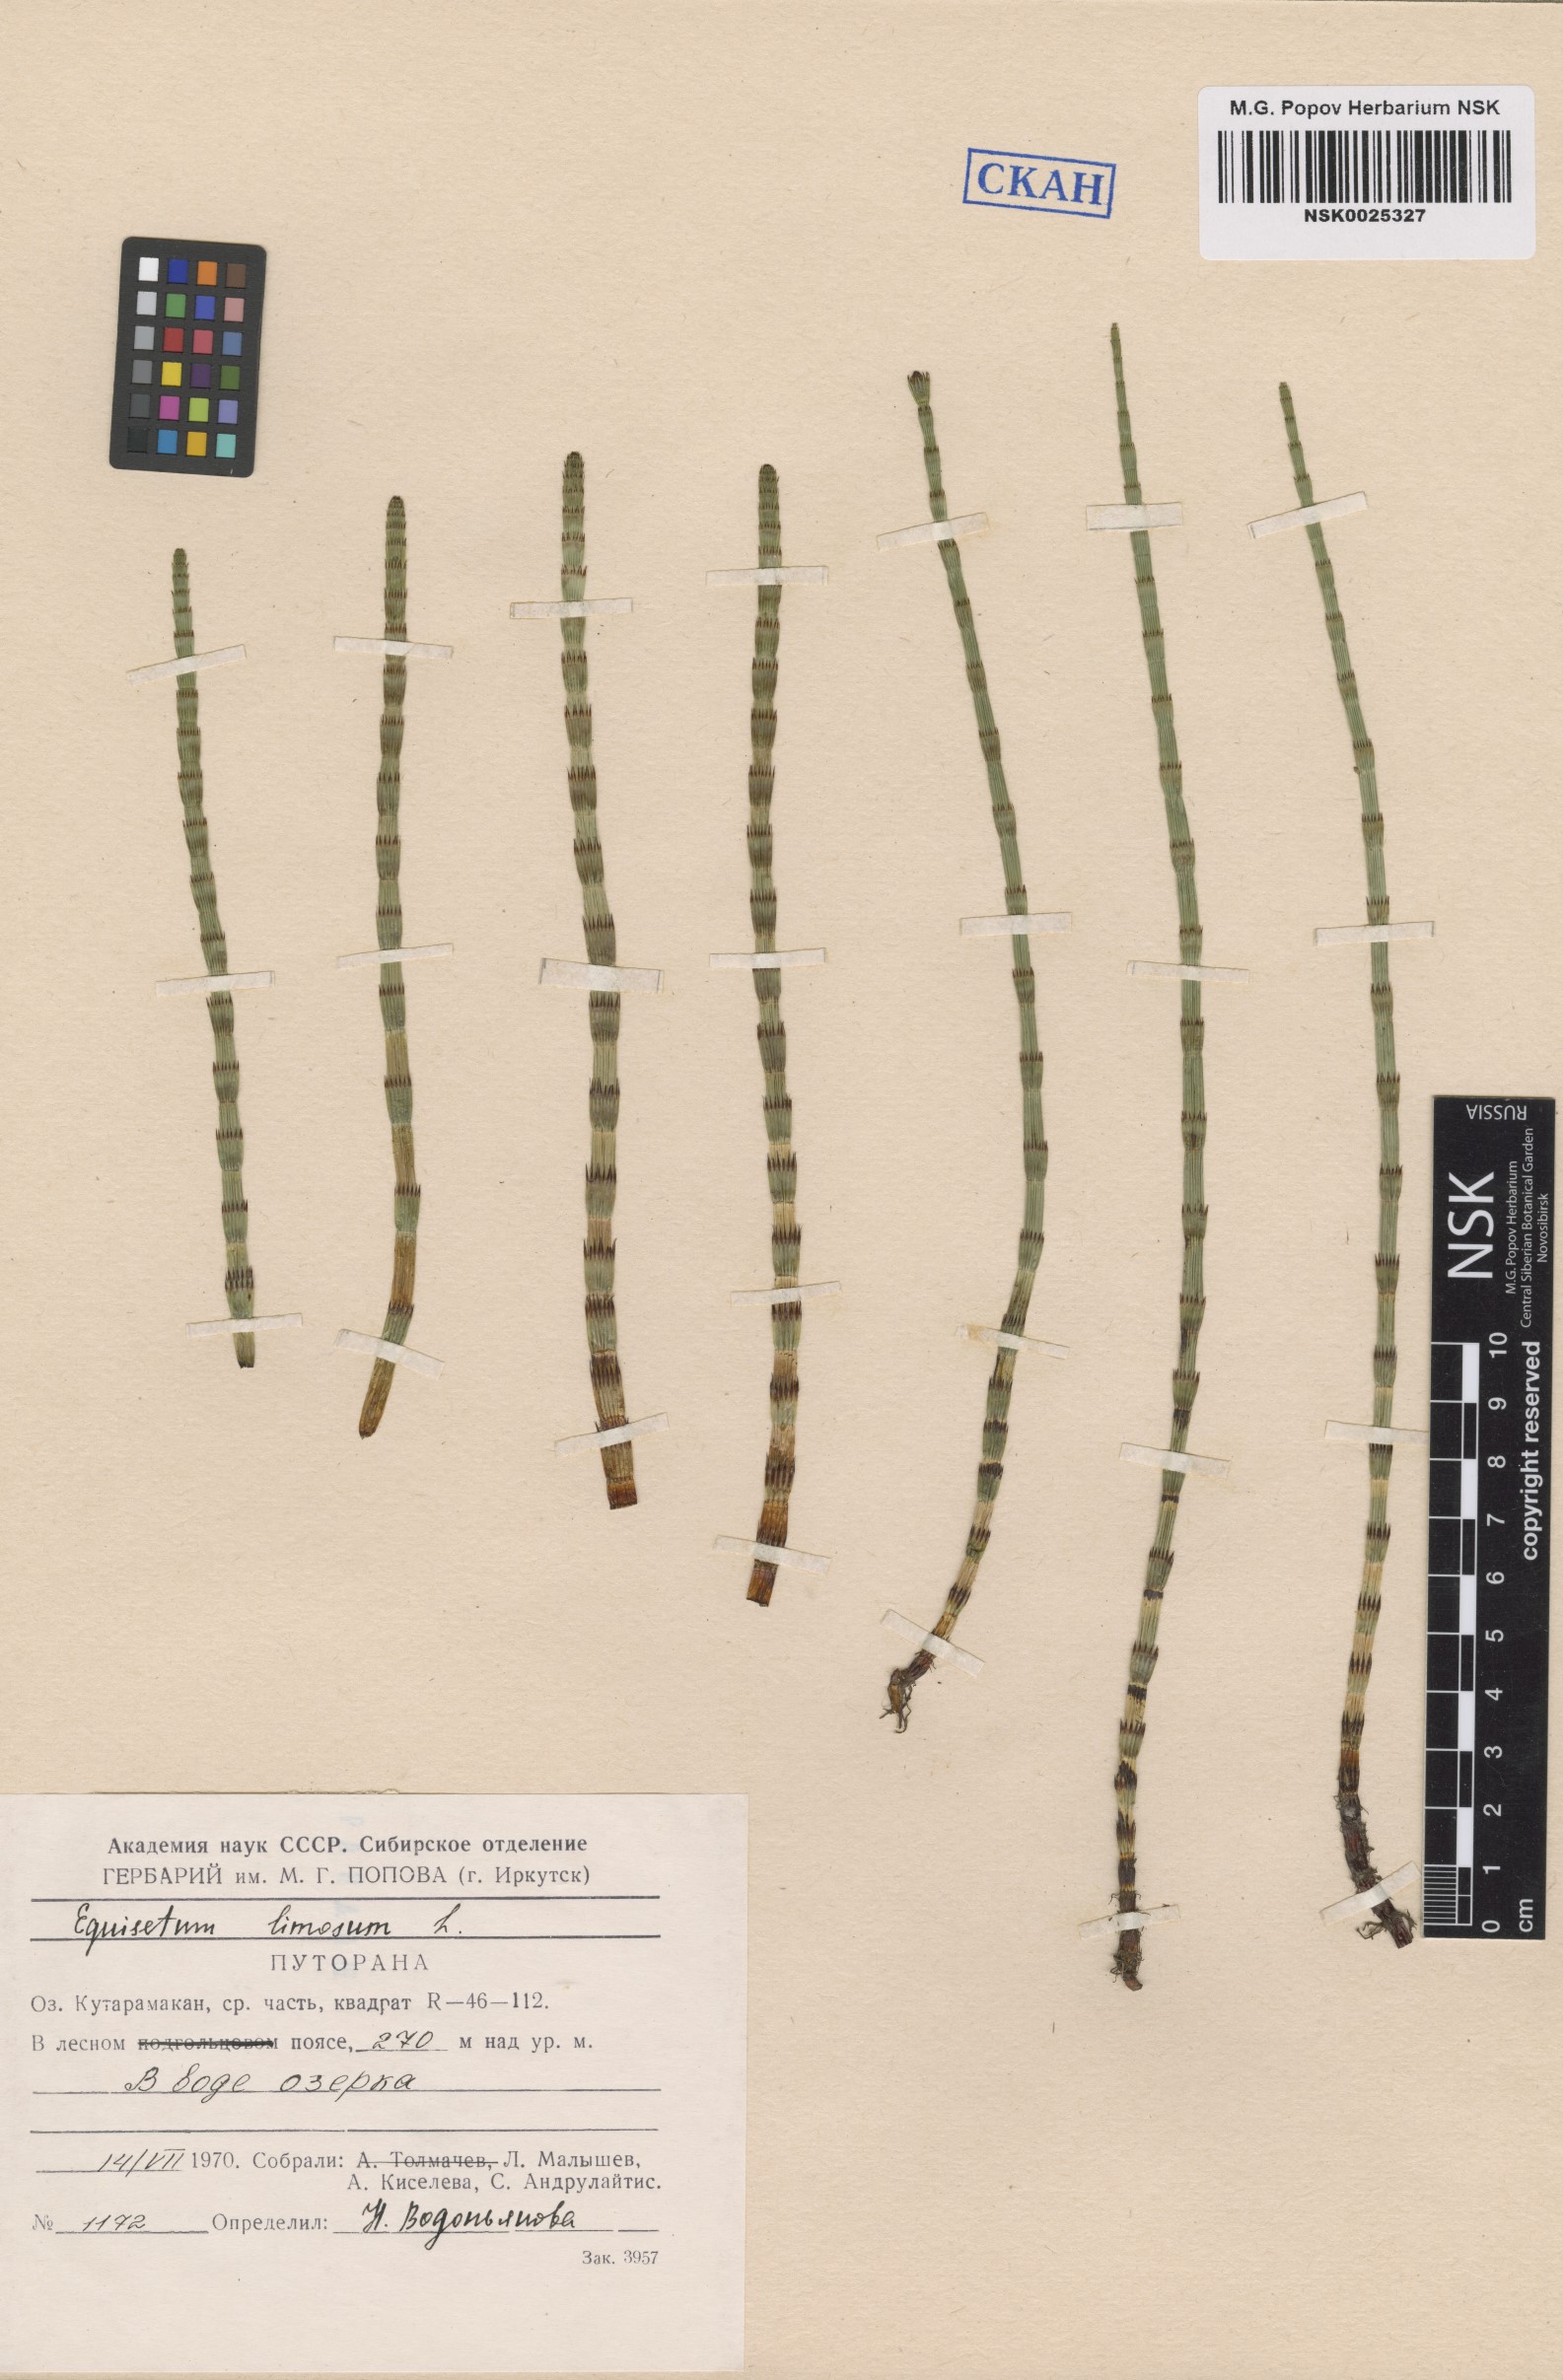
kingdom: Plantae
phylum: Tracheophyta
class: Polypodiopsida
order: Equisetales
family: Equisetaceae
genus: Equisetum
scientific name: Equisetum fluviatile
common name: Water horsetail
